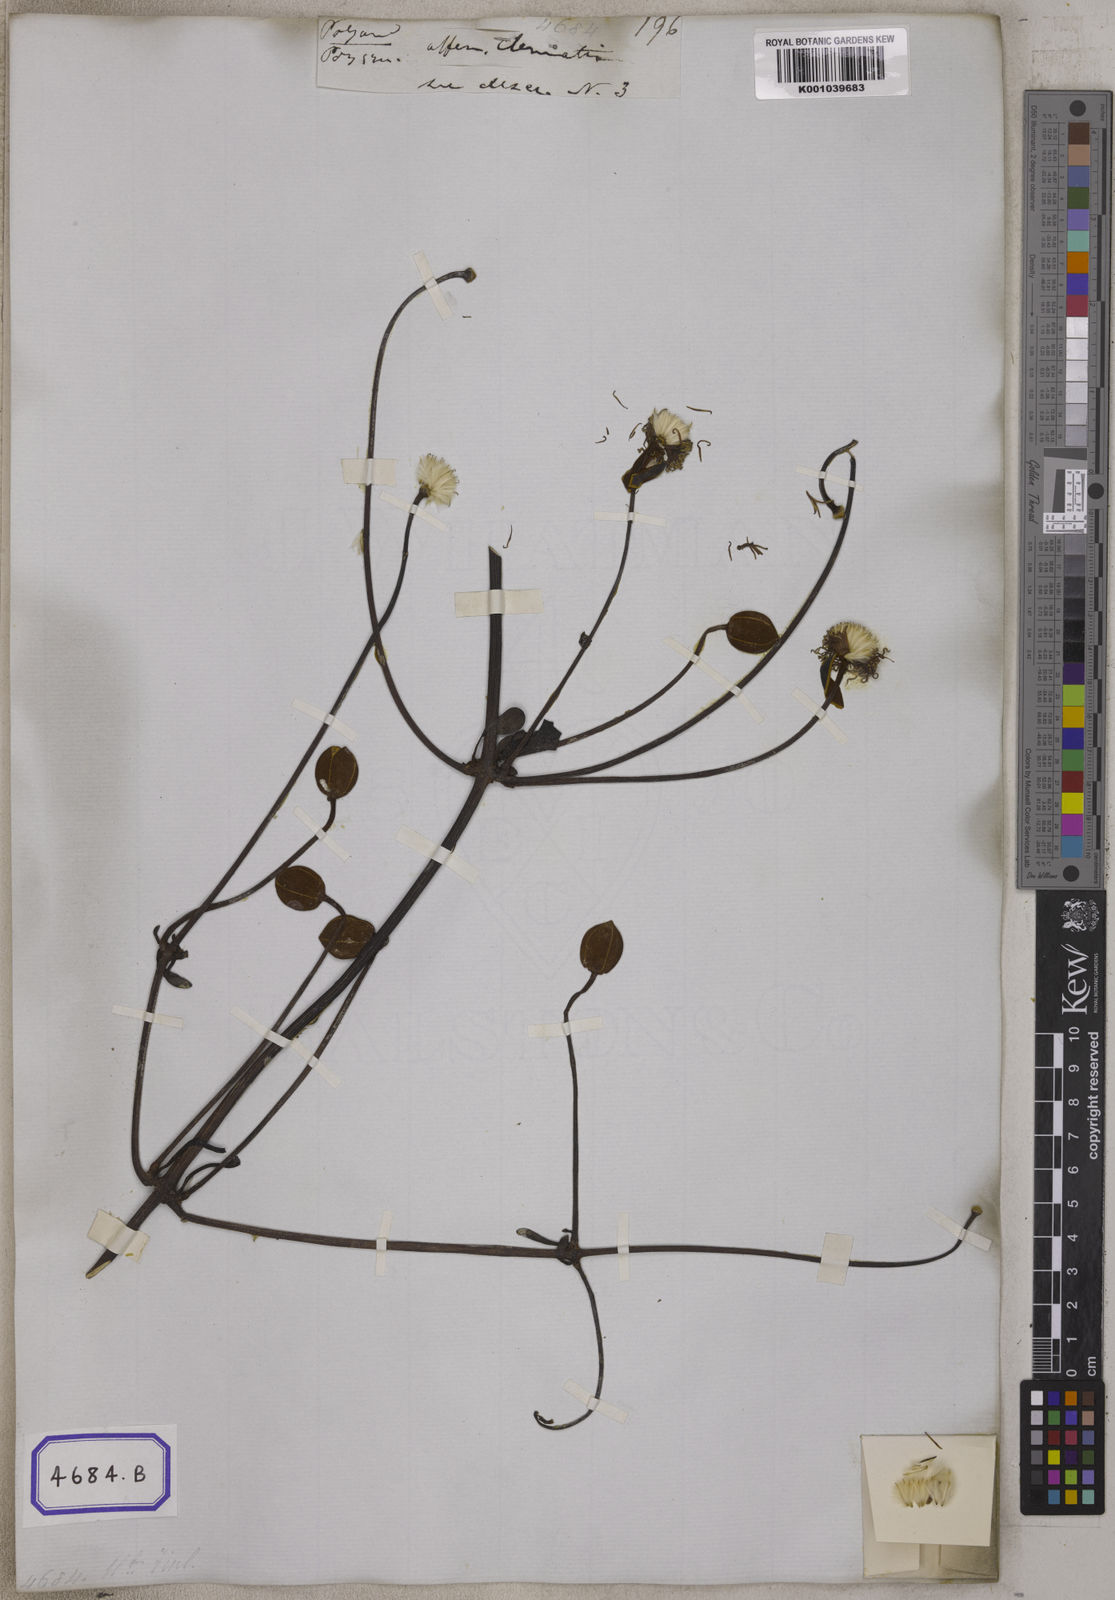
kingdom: Plantae
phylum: Tracheophyta
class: Magnoliopsida
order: Ranunculales
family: Ranunculaceae
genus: Clematis
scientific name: Clematis smilacifolia
